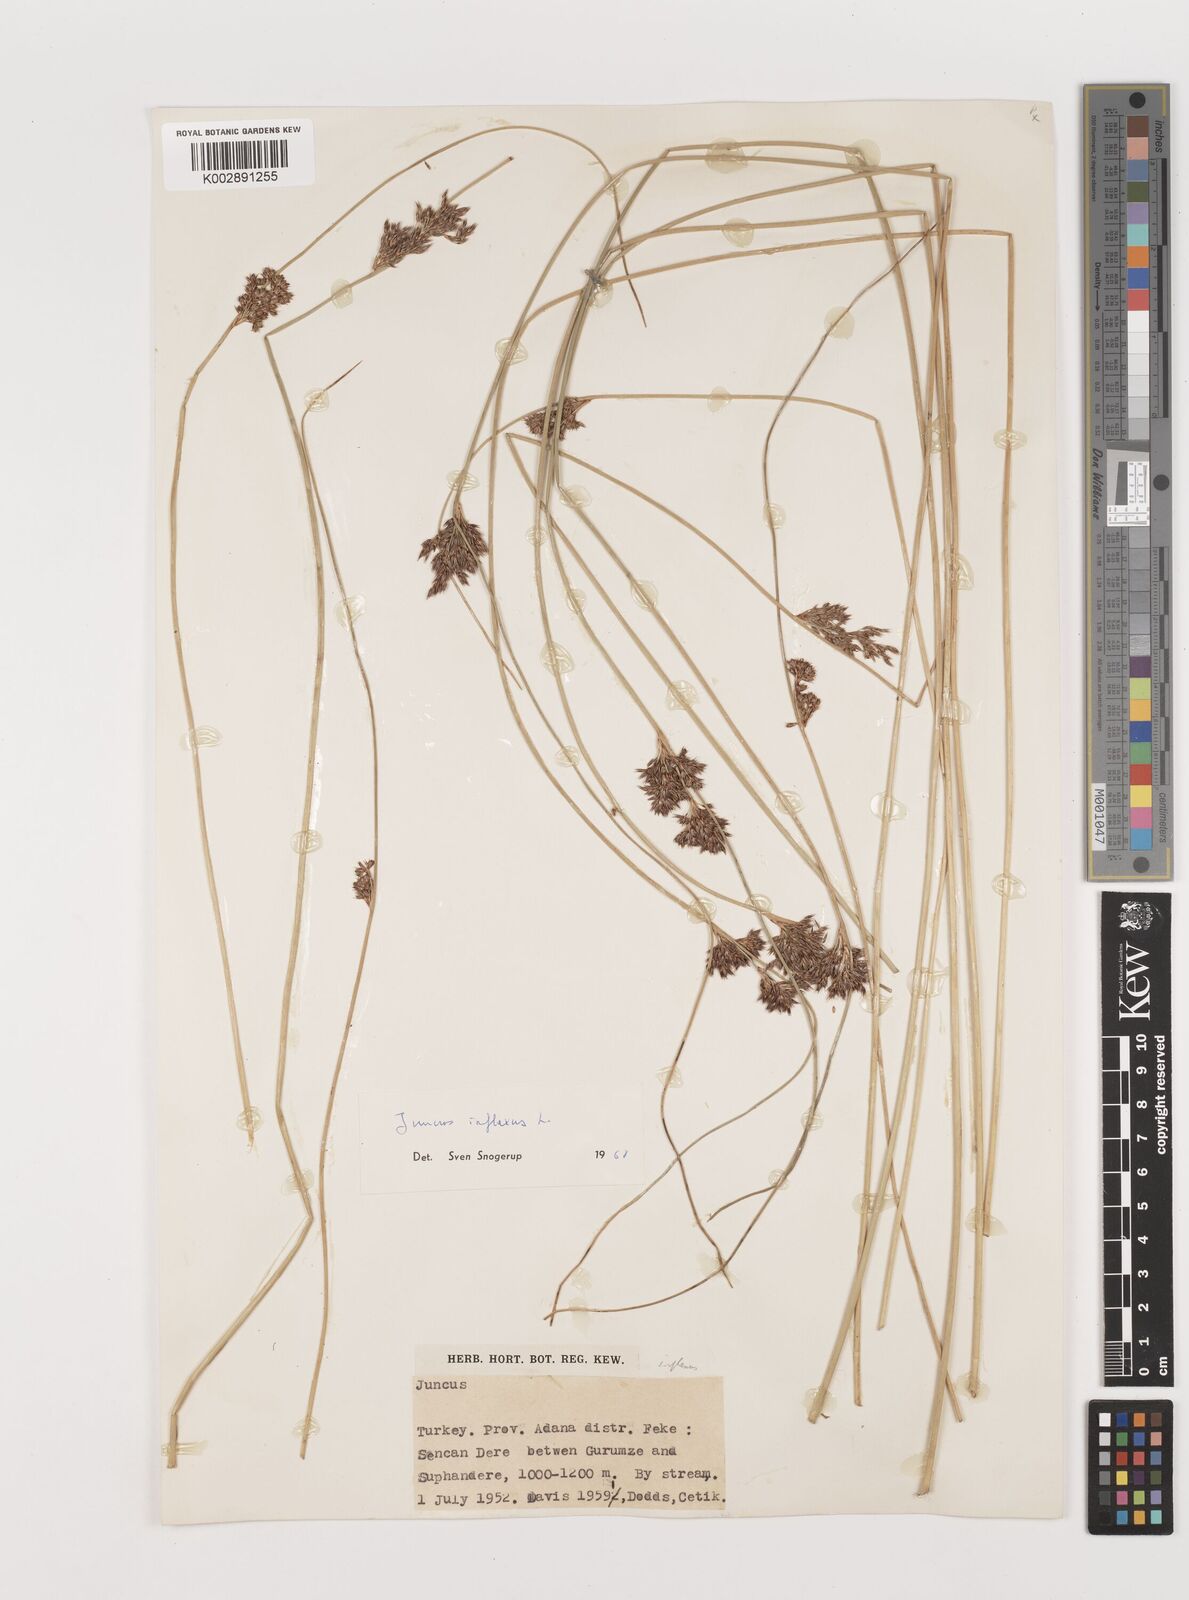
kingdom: Plantae
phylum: Tracheophyta
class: Liliopsida
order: Poales
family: Juncaceae
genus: Juncus
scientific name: Juncus inflexus
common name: Hard rush
